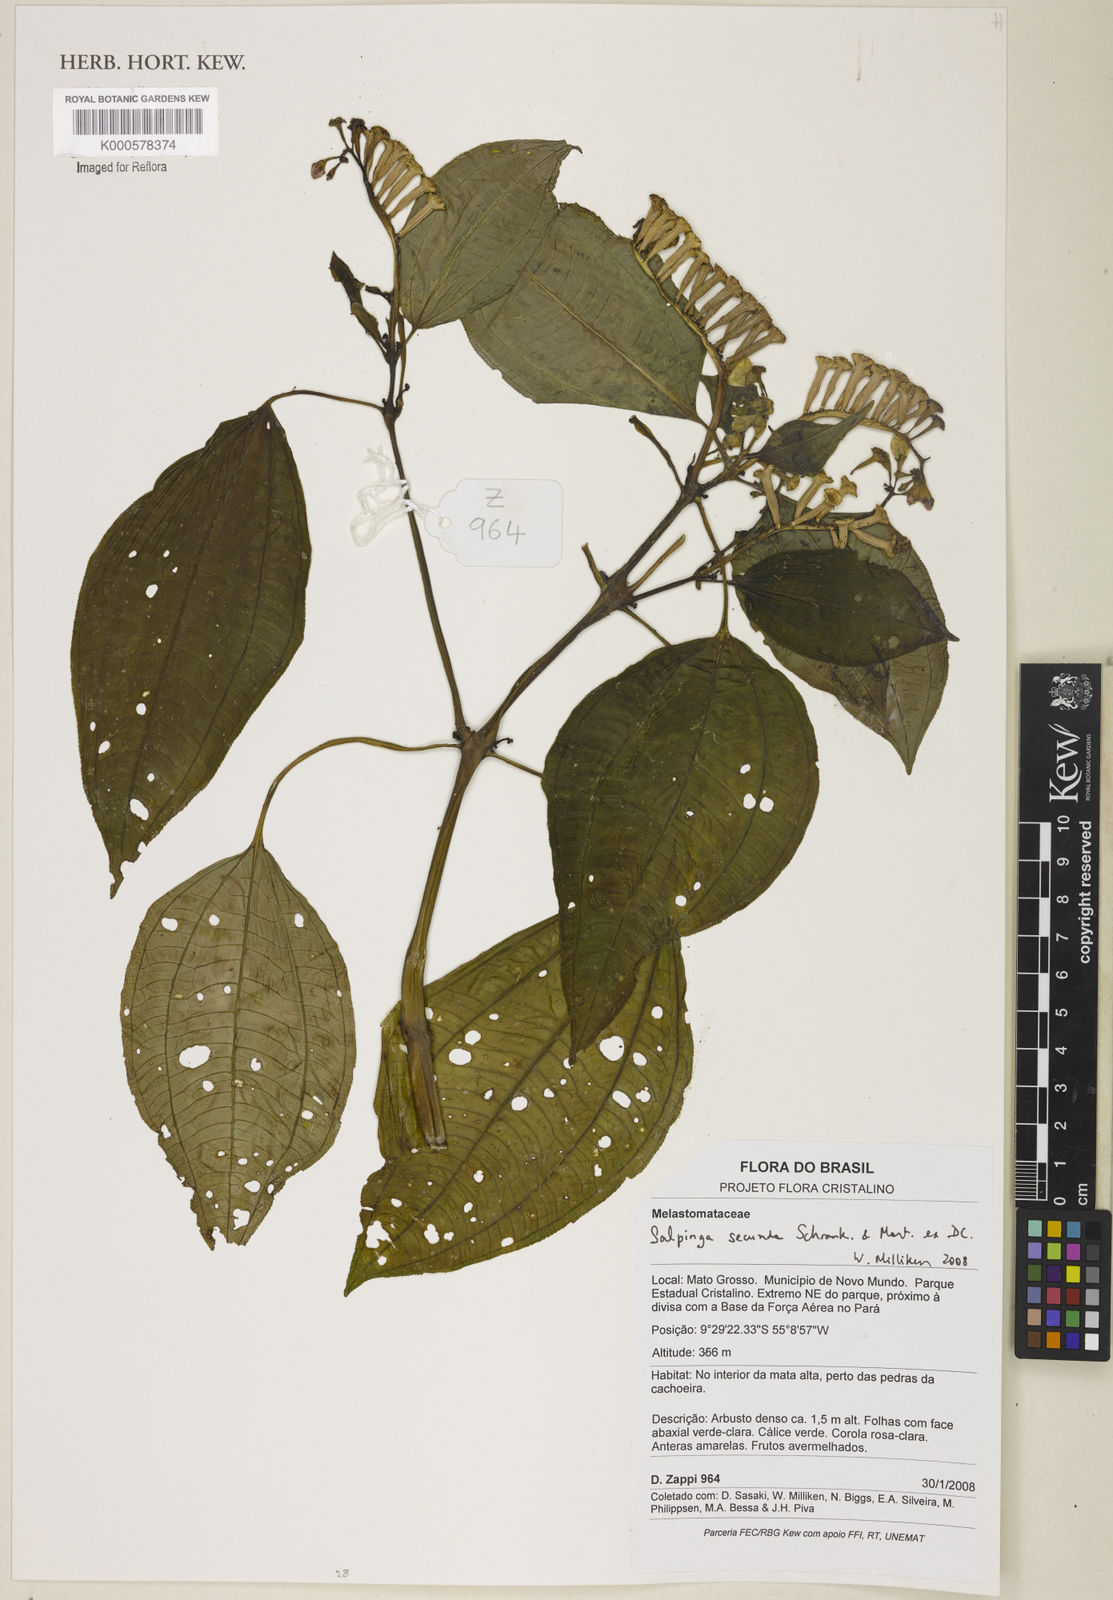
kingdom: Plantae
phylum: Tracheophyta
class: Magnoliopsida
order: Myrtales
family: Melastomataceae
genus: Salpinga
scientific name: Salpinga secunda
